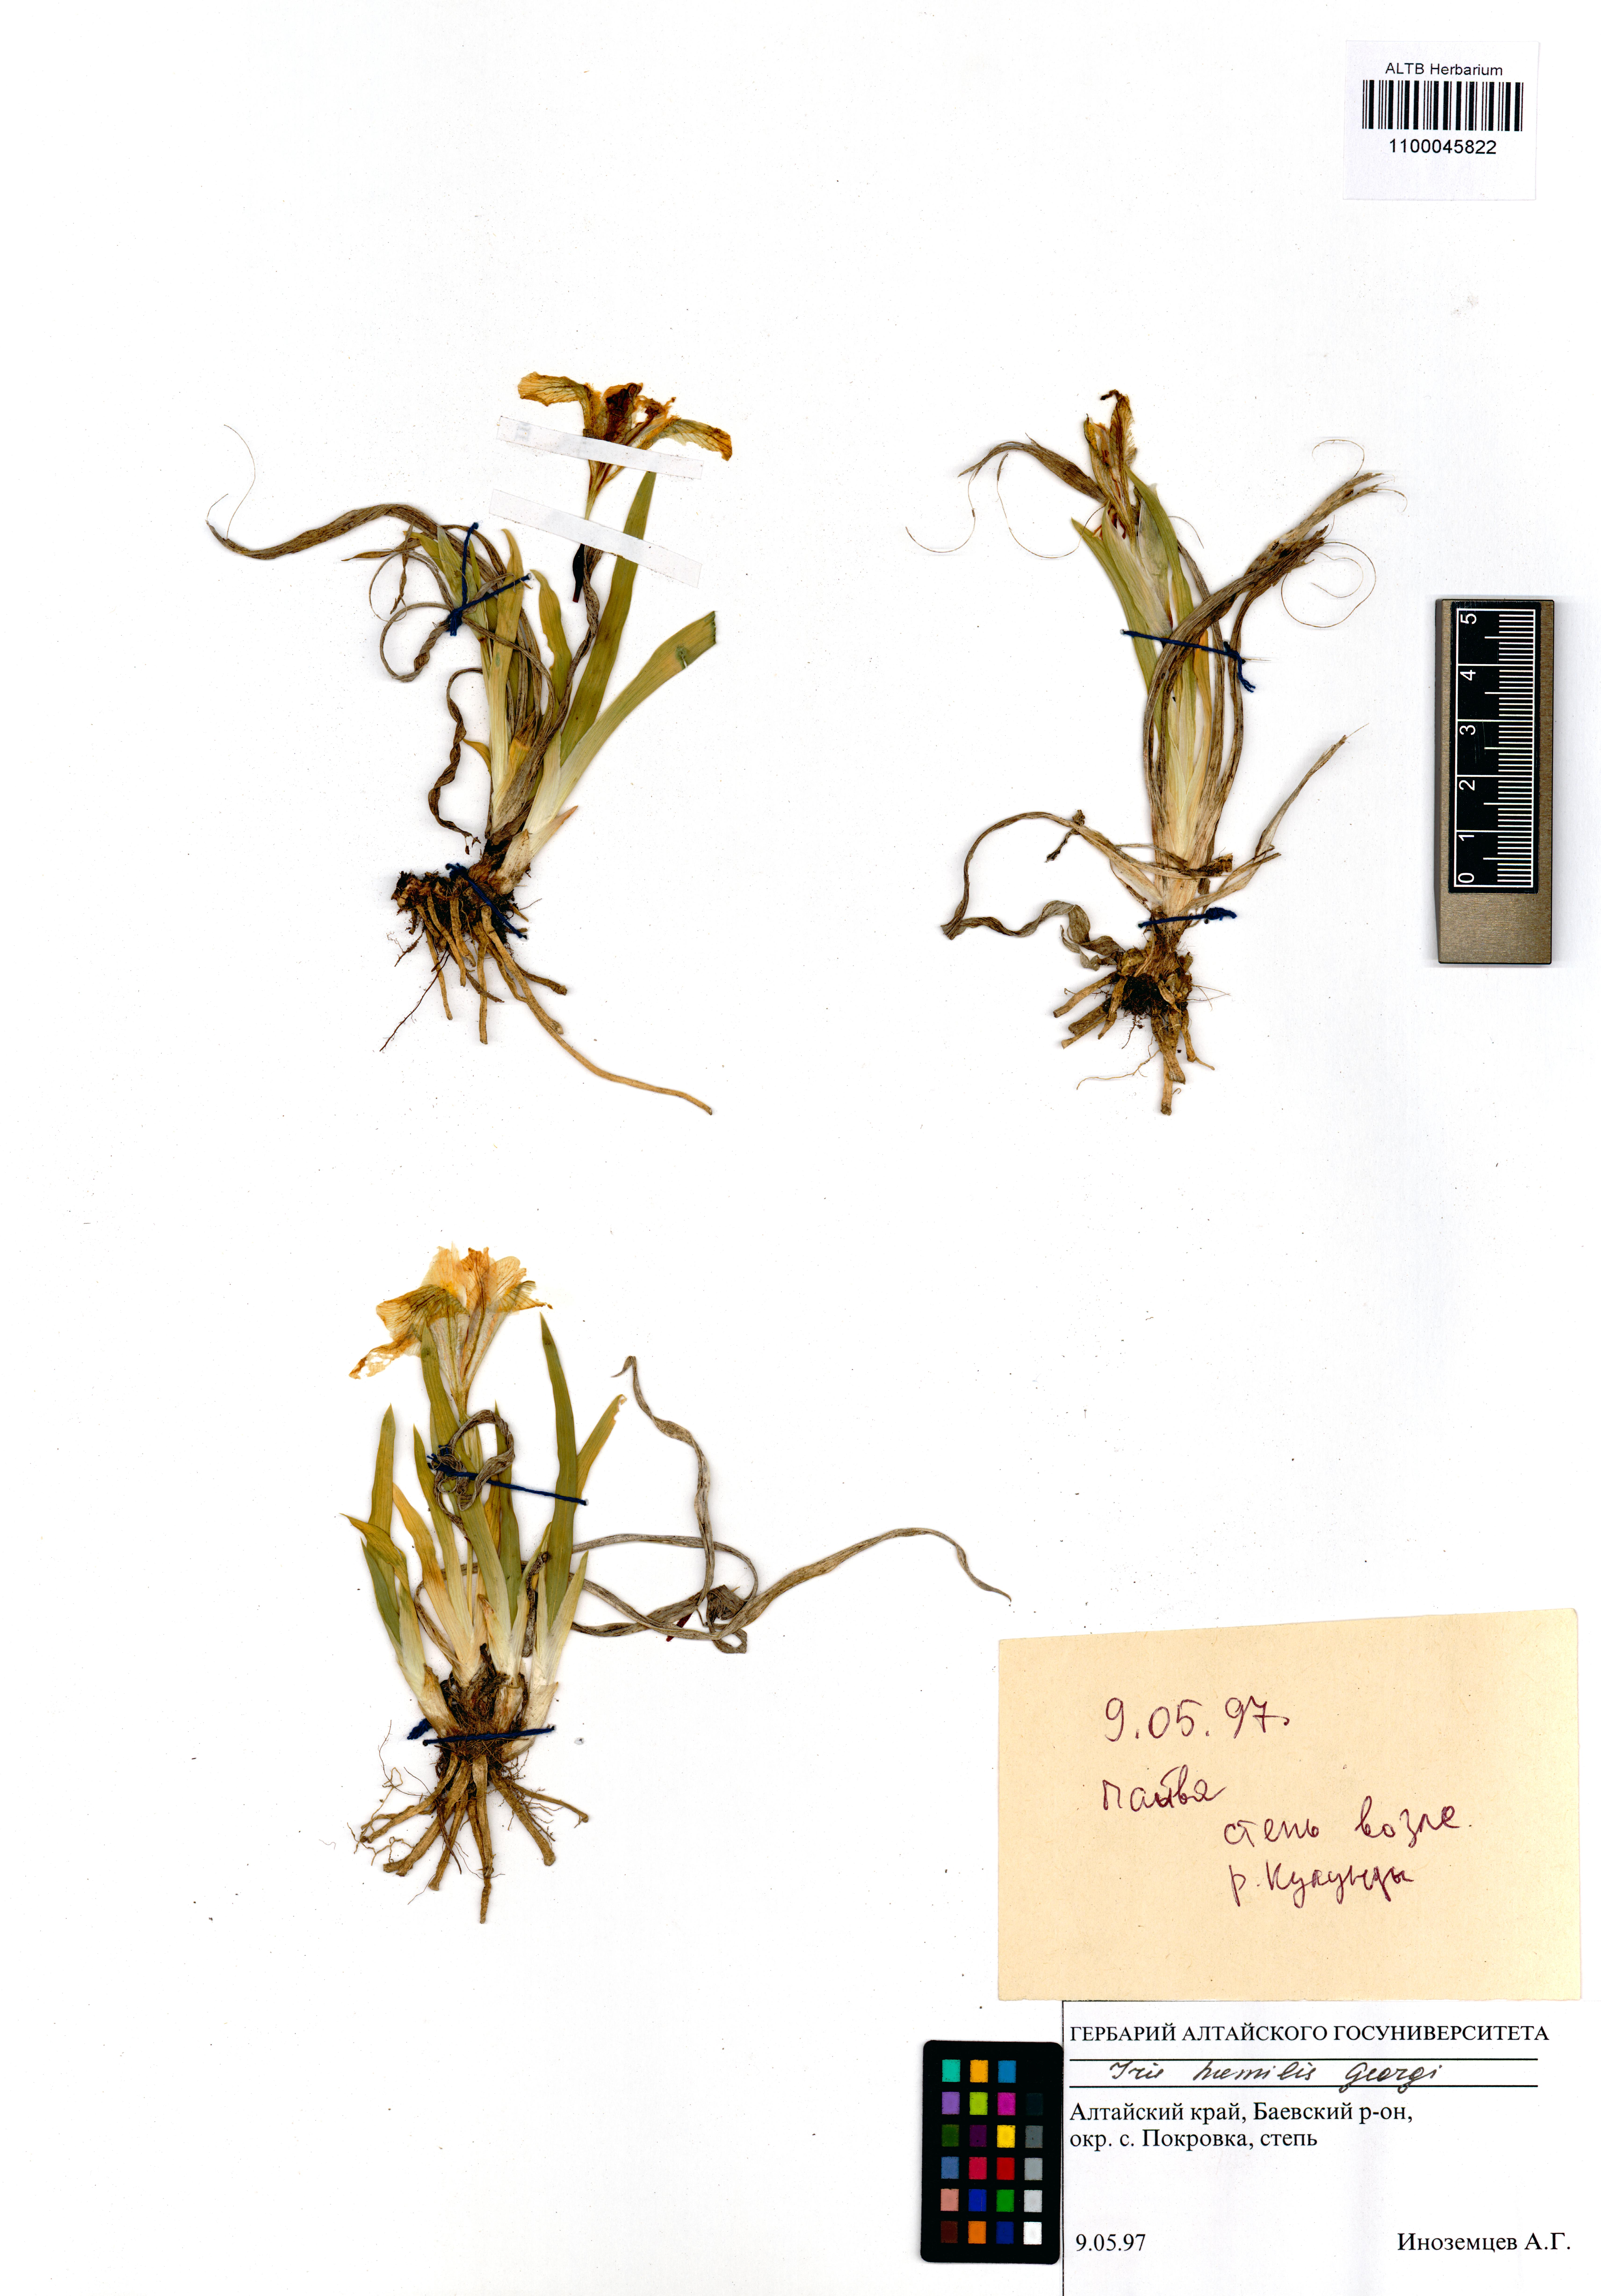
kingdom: Plantae
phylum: Tracheophyta
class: Liliopsida
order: Asparagales
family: Iridaceae
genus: Iris
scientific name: Iris humilis
